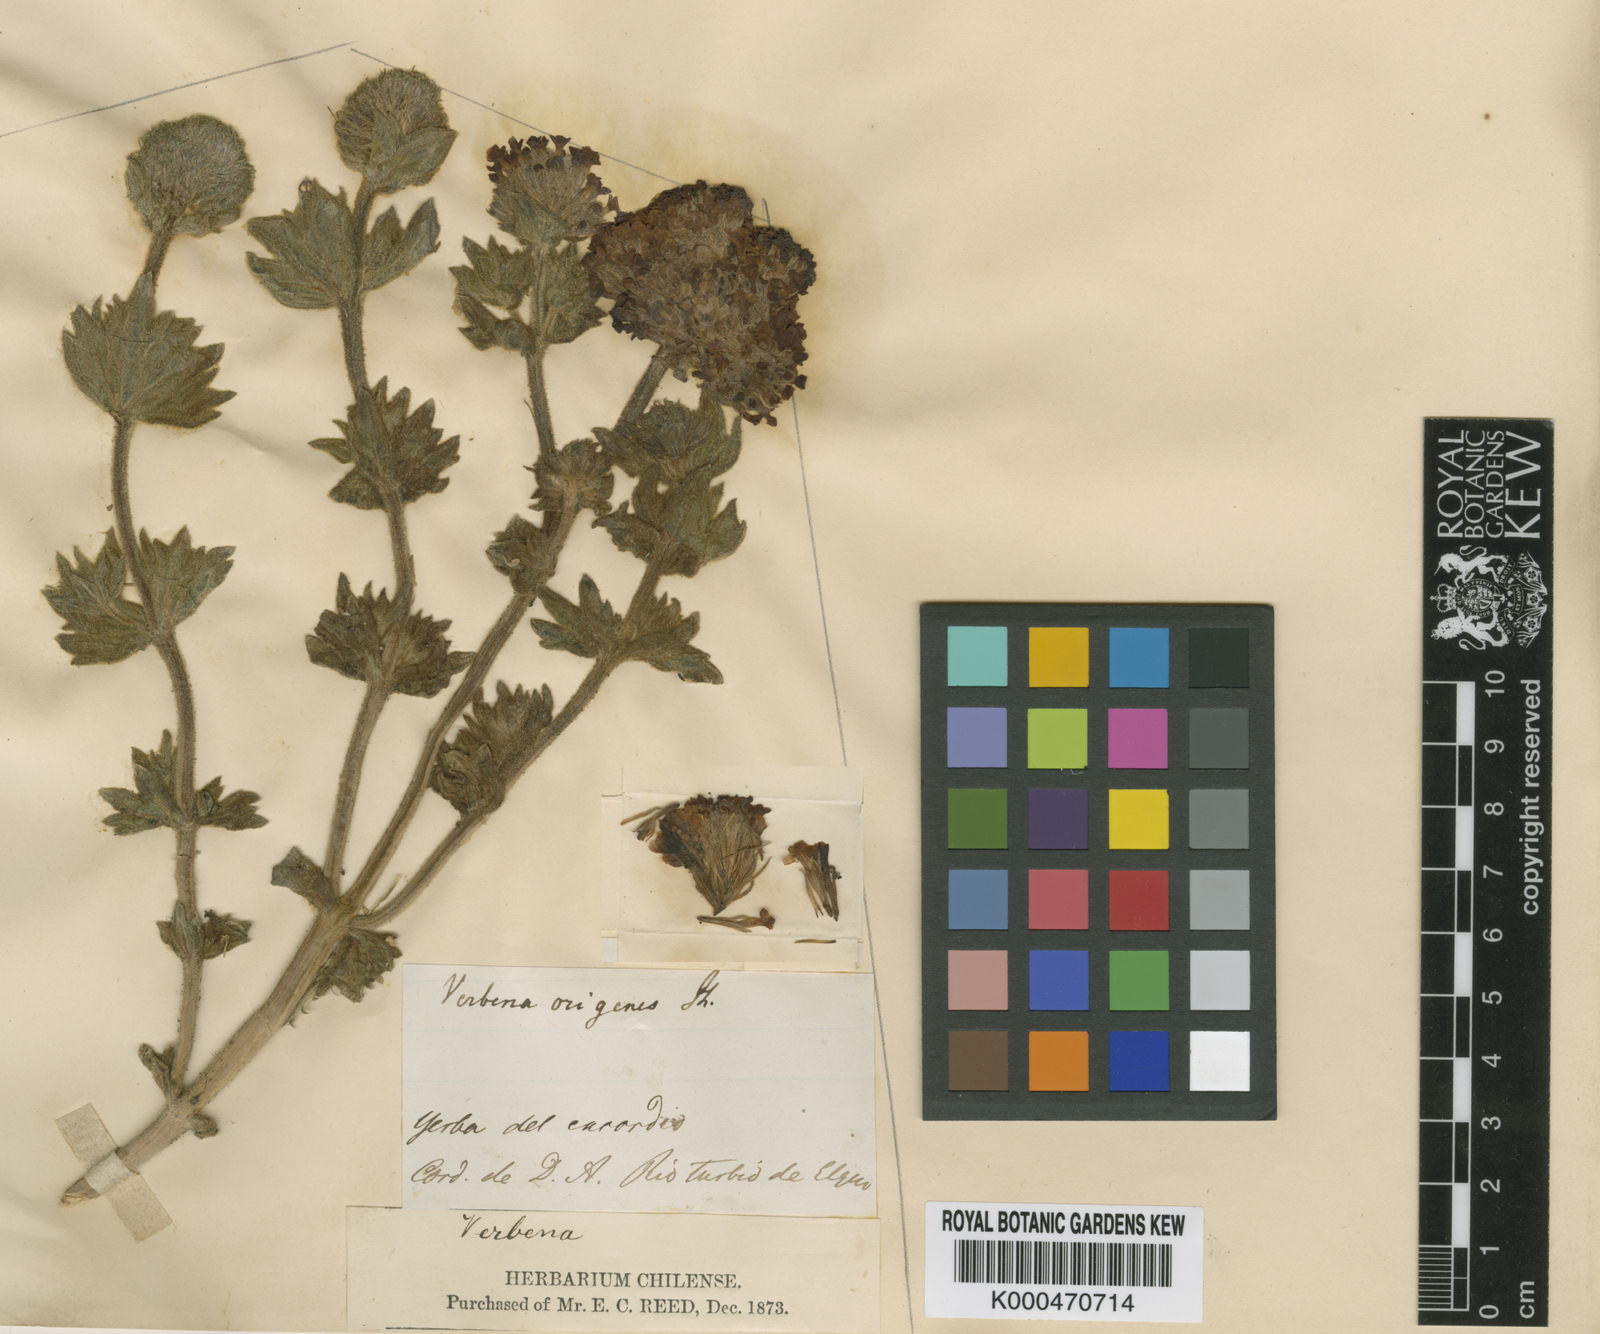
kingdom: Plantae
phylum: Tracheophyta
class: Magnoliopsida
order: Lamiales
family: Verbenaceae
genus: Junellia
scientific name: Junellia origenes
